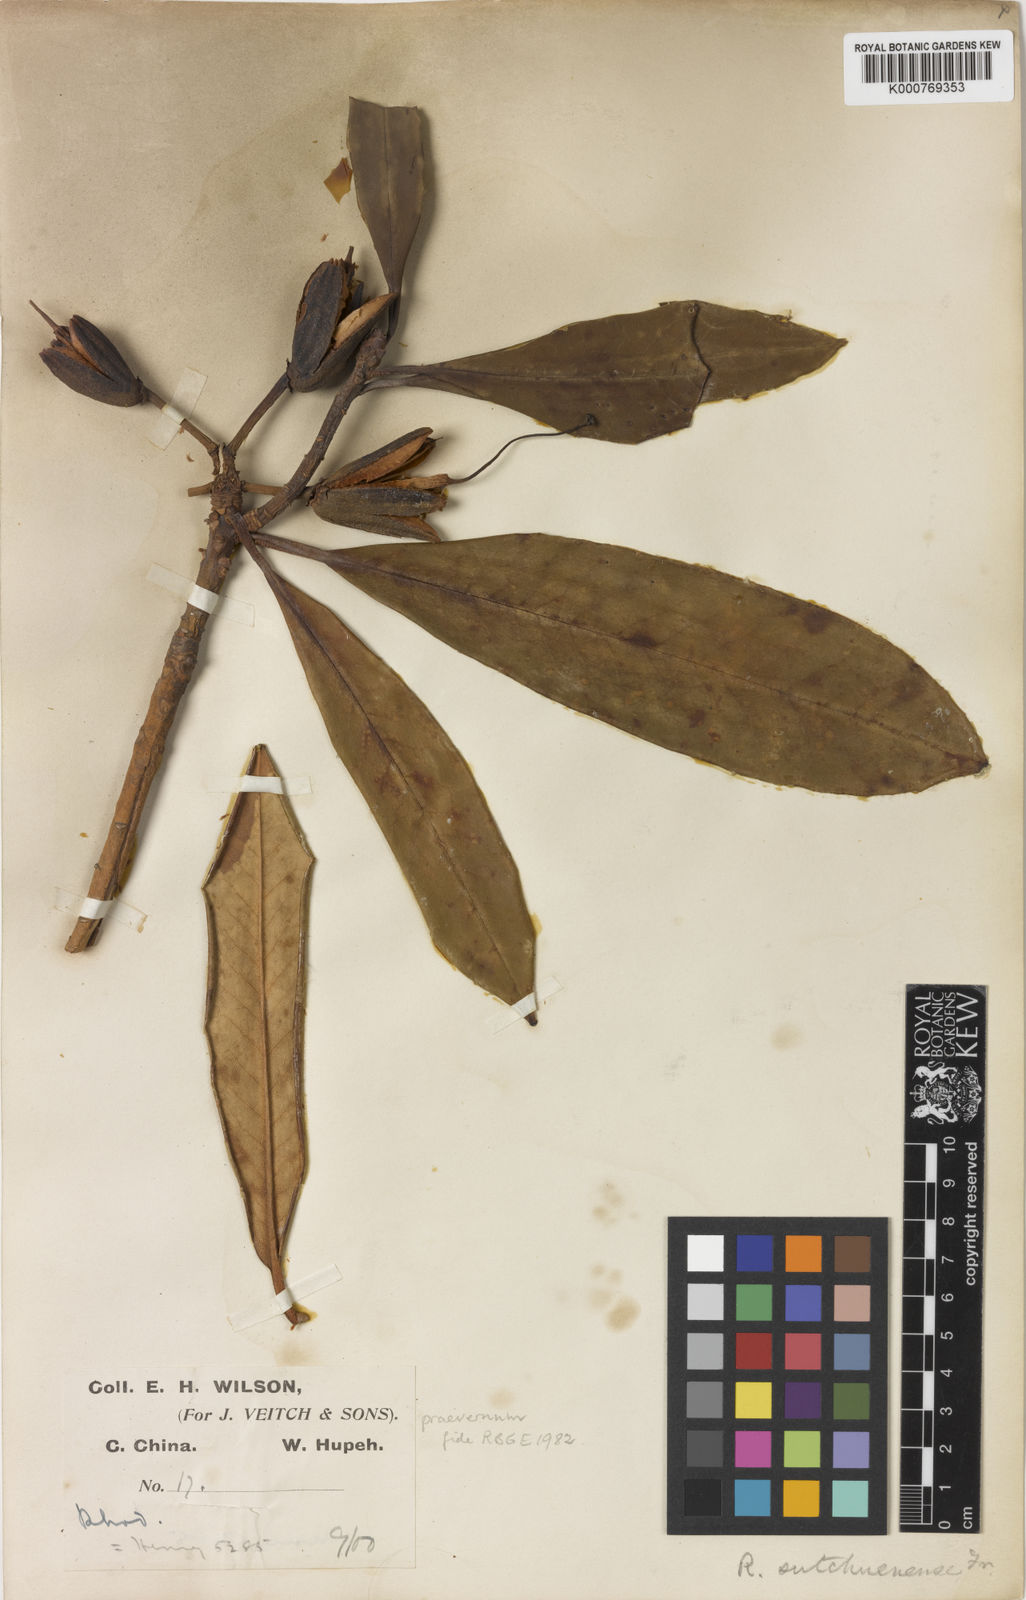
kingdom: Plantae
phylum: Tracheophyta
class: Magnoliopsida
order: Ericales
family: Ericaceae
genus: Rhododendron
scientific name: Rhododendron praevernum
